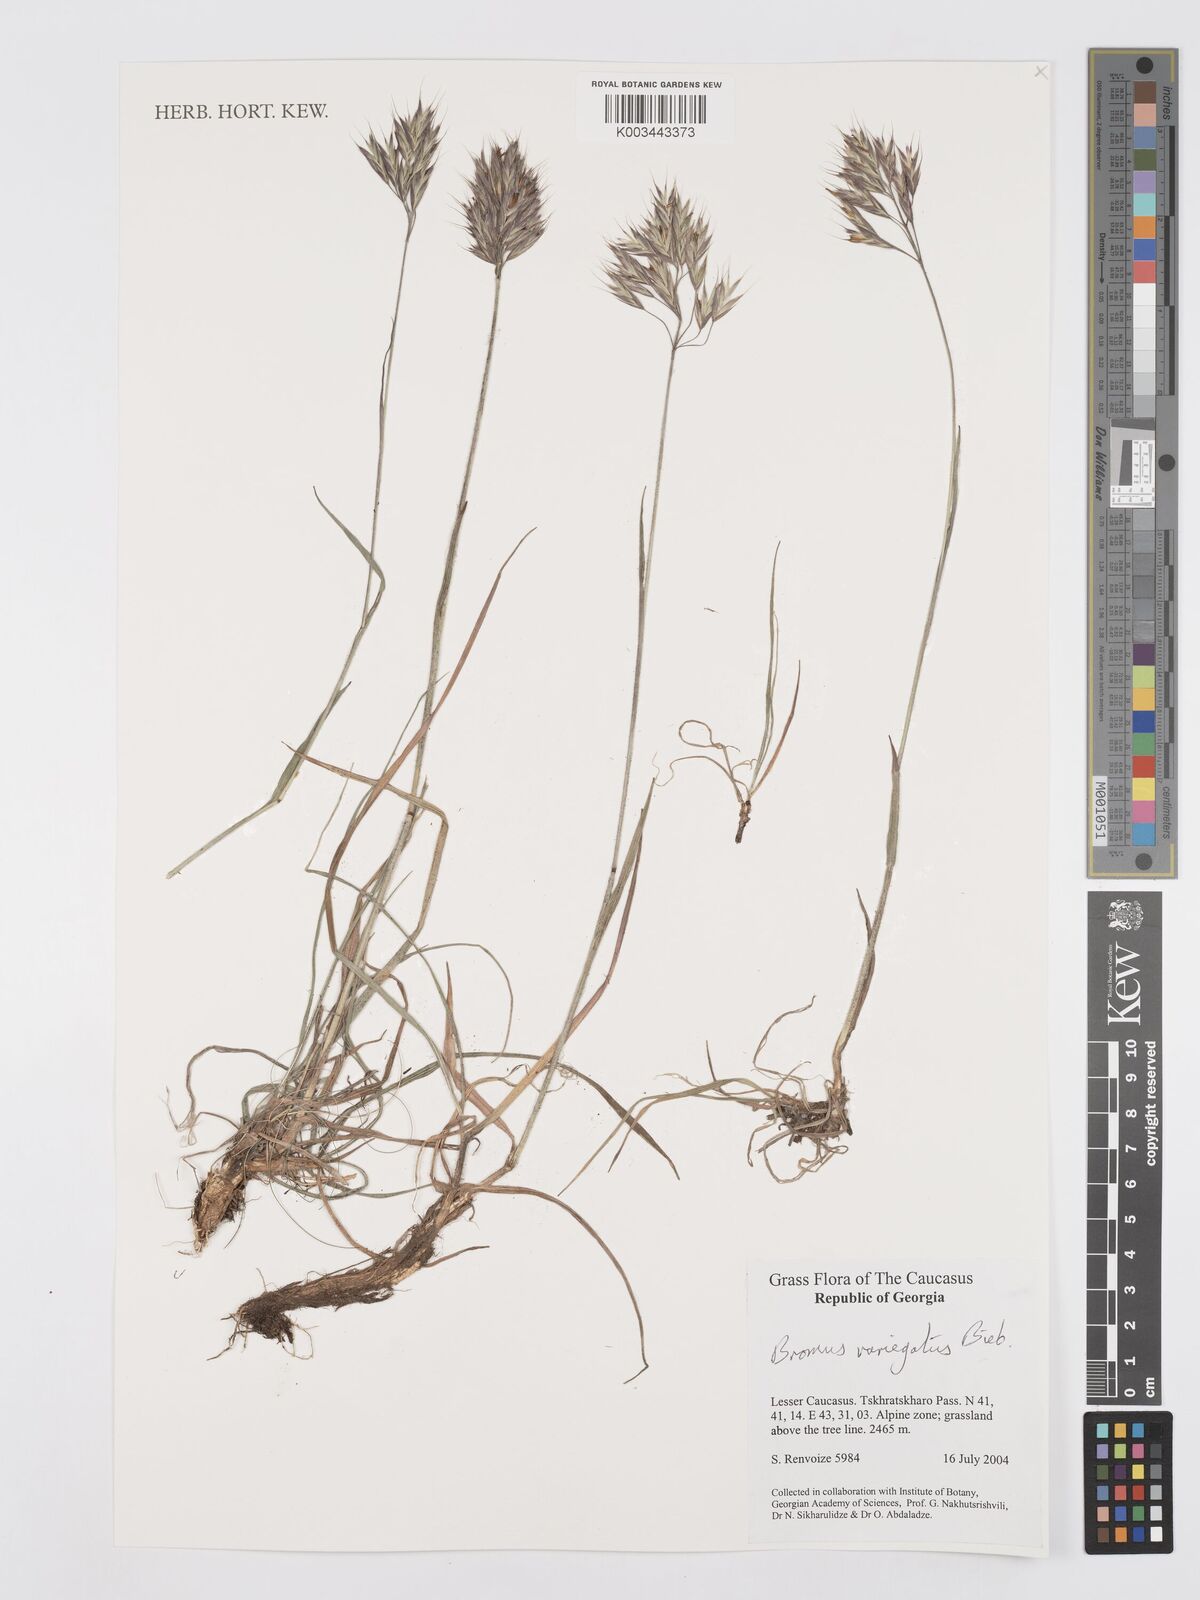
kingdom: Plantae
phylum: Tracheophyta
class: Liliopsida
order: Poales
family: Poaceae
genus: Bromus
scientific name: Bromus variegatus
